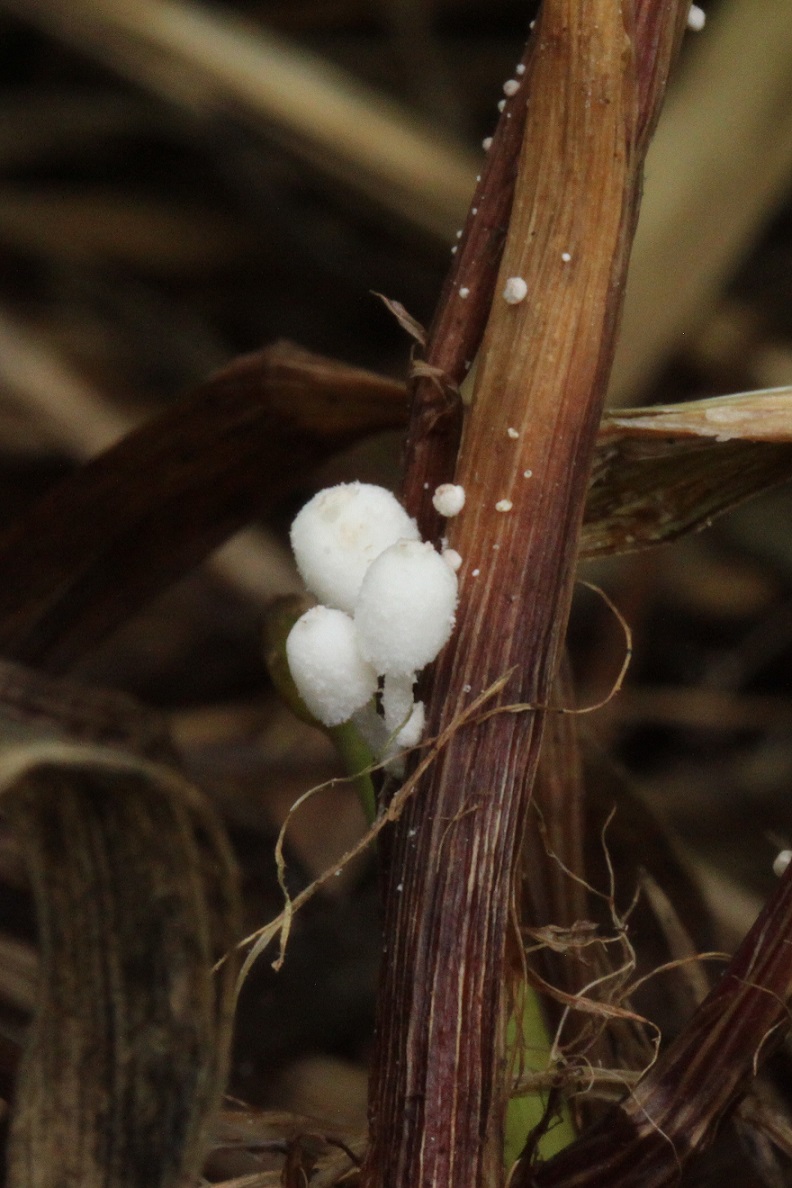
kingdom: Fungi
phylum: Basidiomycota
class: Agaricomycetes
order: Agaricales
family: Psathyrellaceae
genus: Coprinopsis
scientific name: Coprinopsis urticicola
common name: urte-blækhat
